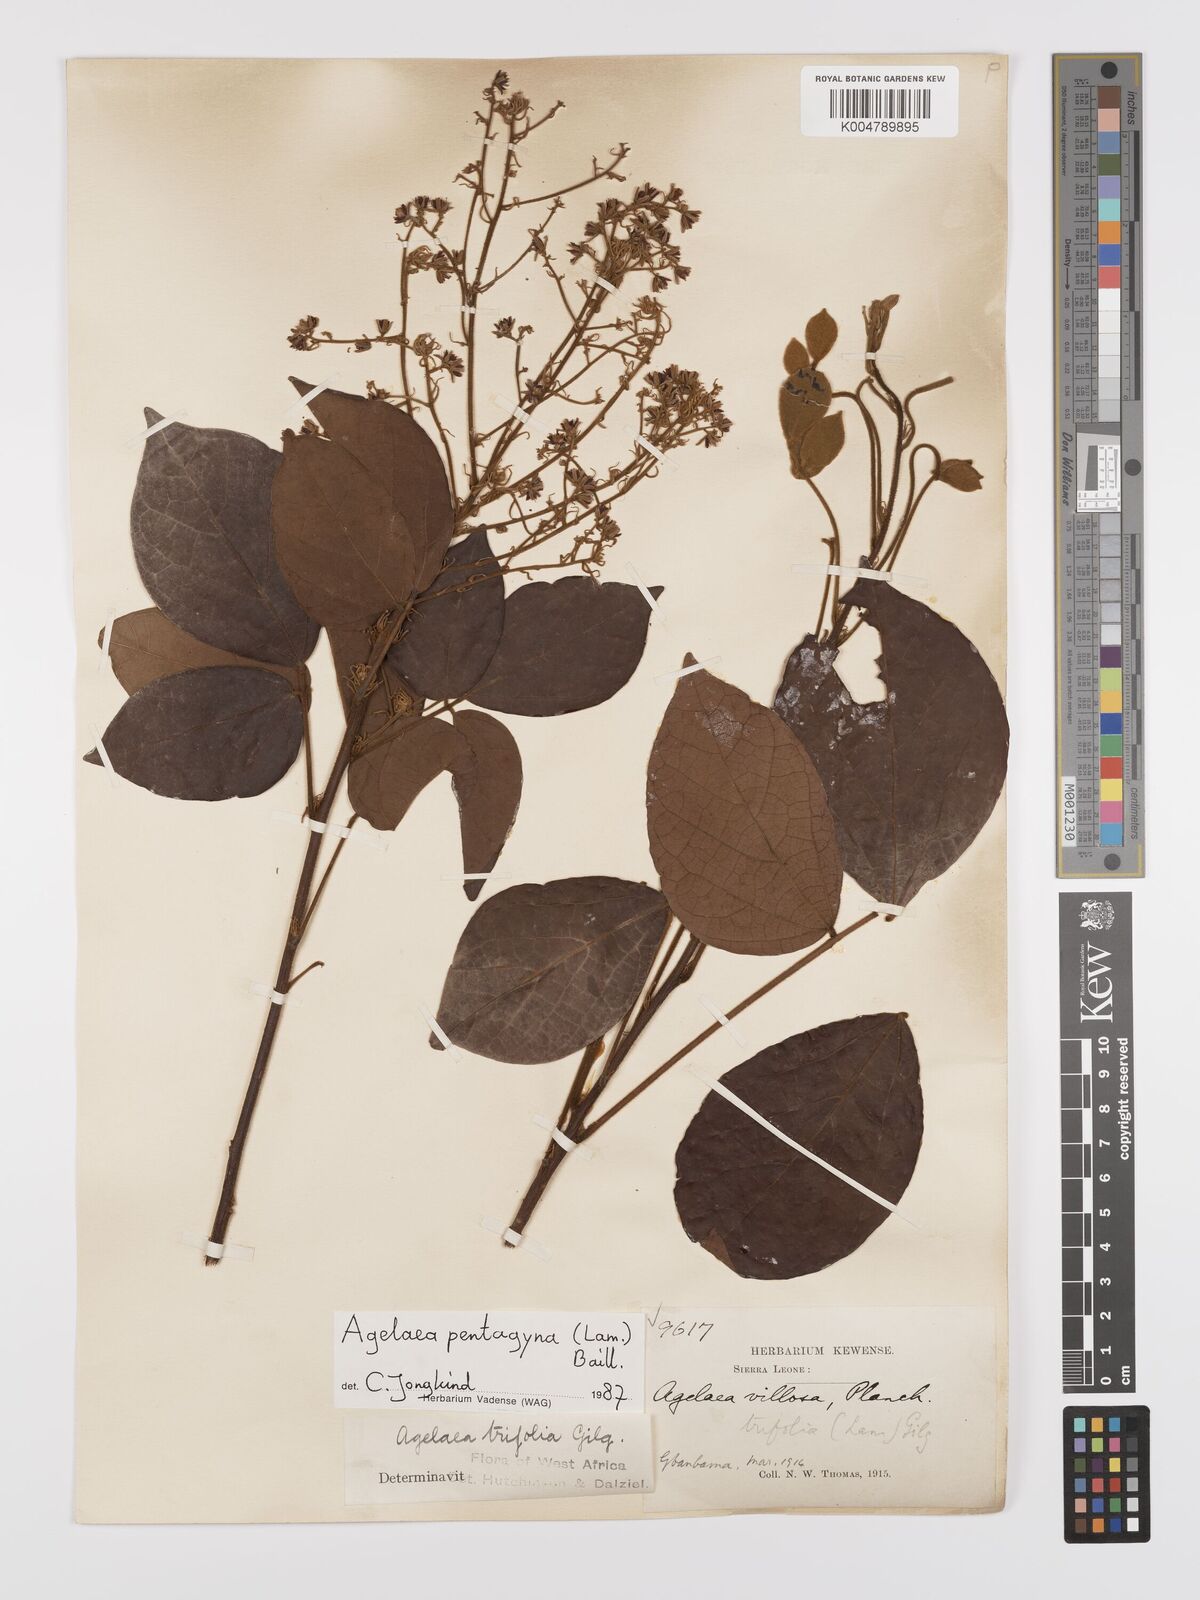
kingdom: Plantae
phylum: Tracheophyta
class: Magnoliopsida
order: Oxalidales
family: Connaraceae
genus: Agelaea
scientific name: Agelaea pentagyna
